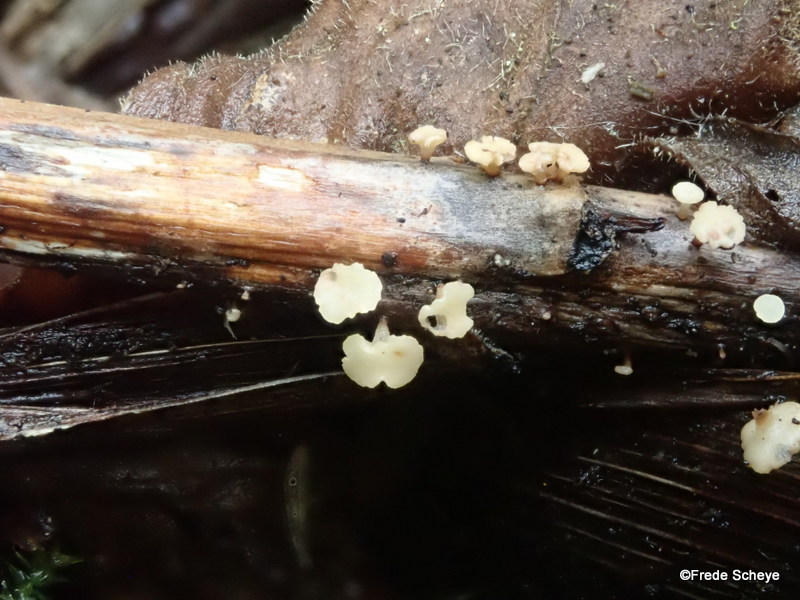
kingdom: Fungi
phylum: Ascomycota
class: Leotiomycetes
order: Helotiales
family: Helotiaceae
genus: Hymenoscyphus
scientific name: Hymenoscyphus scutula
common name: almindelig stilkskive
